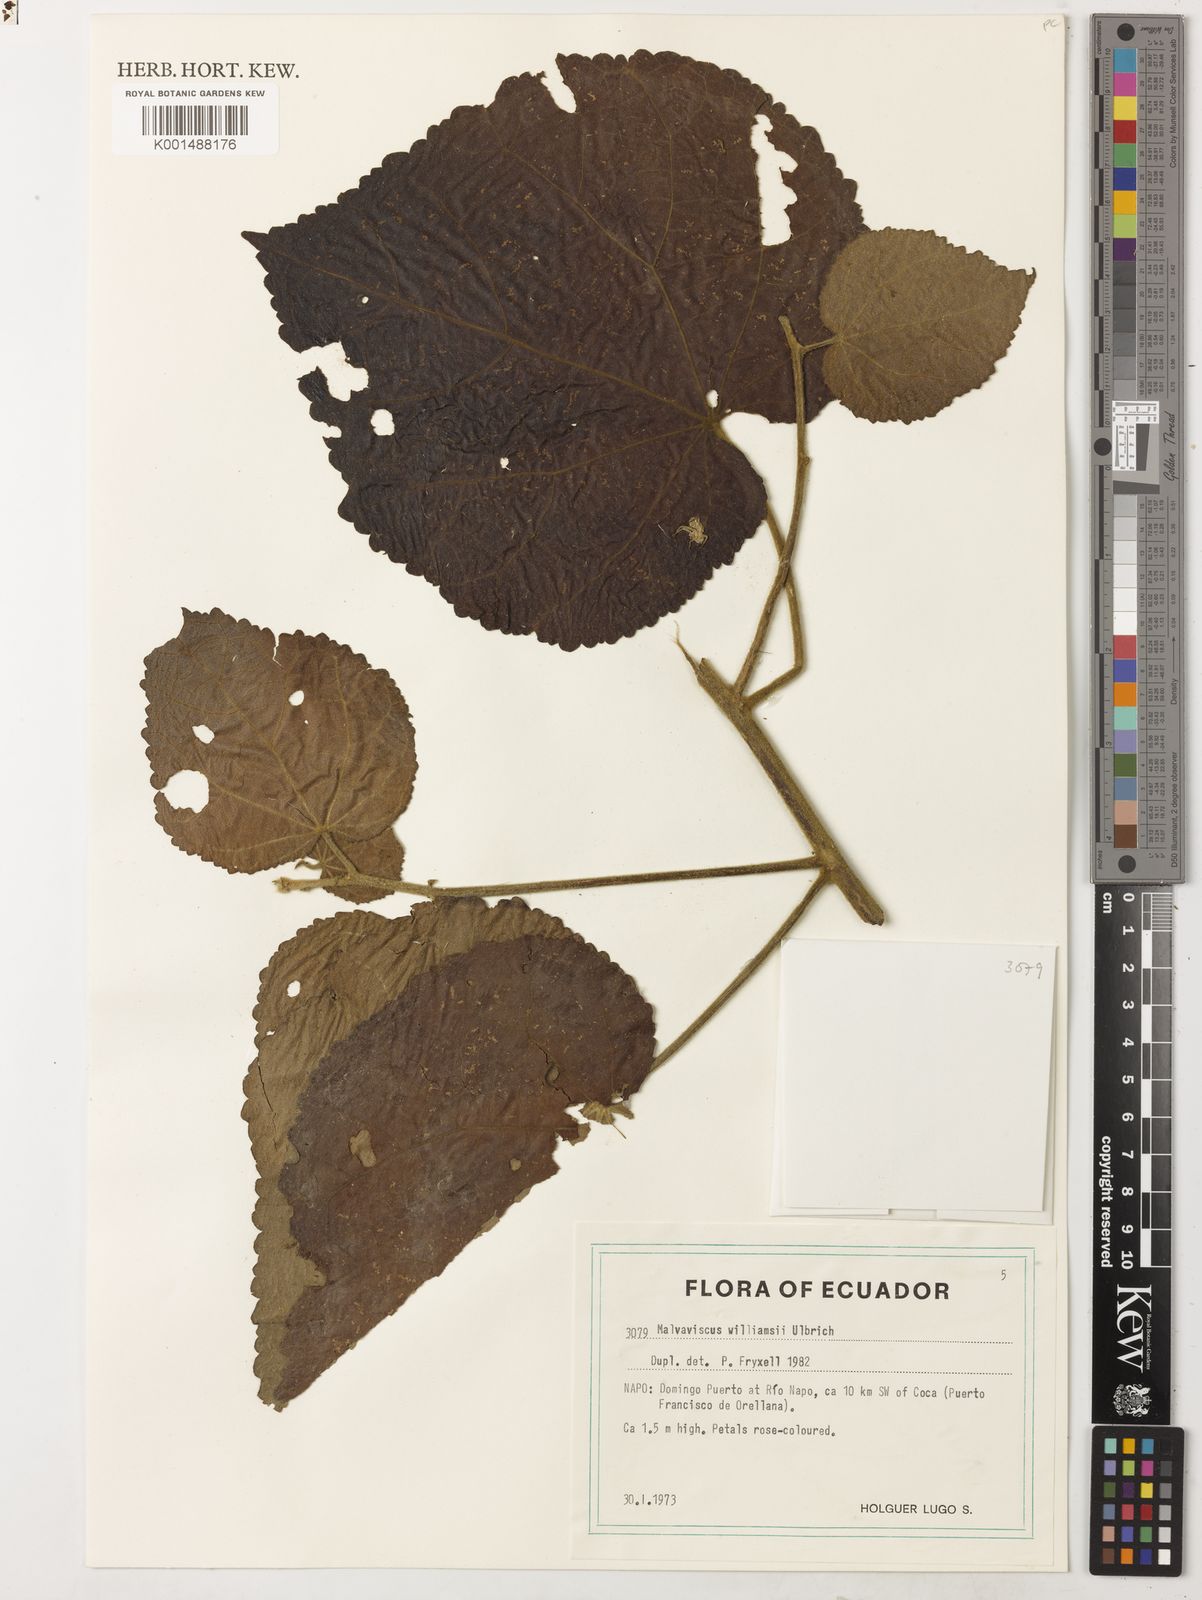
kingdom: Plantae
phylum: Tracheophyta
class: Magnoliopsida
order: Malvales
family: Malvaceae
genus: Malvaviscus
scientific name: Malvaviscus williamsii
